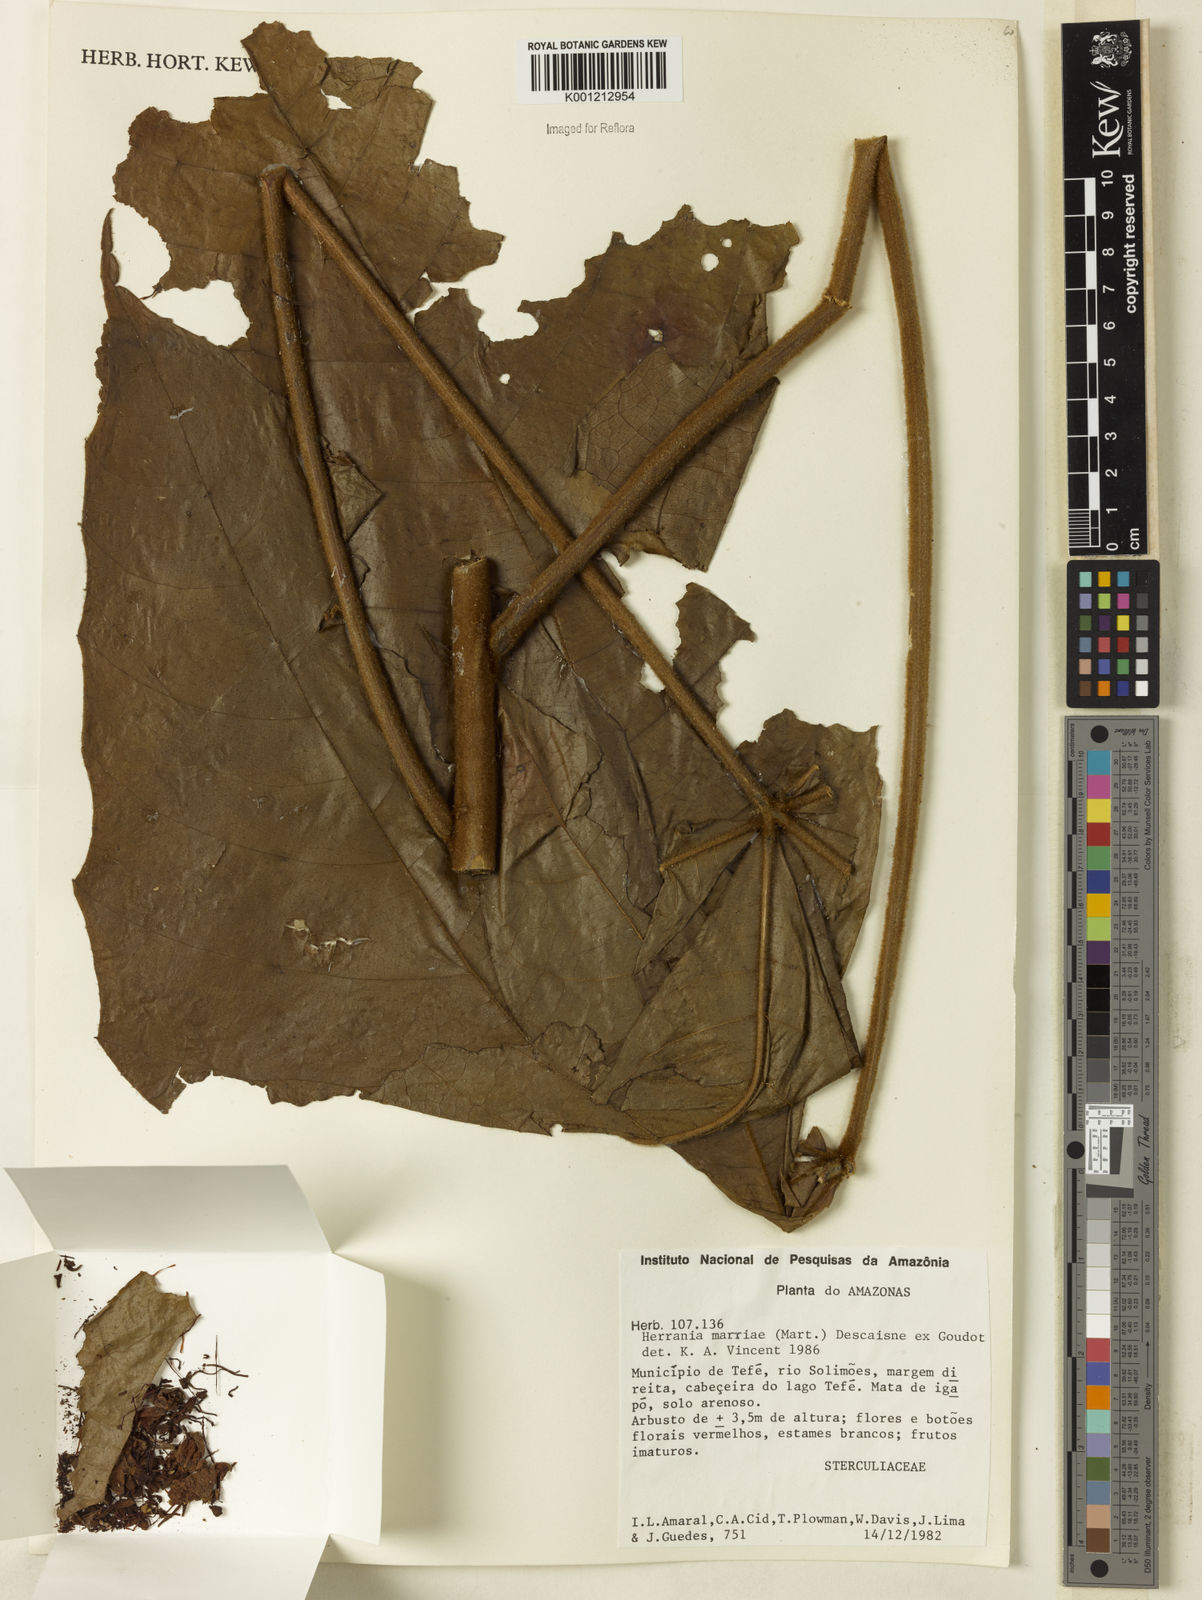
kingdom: Plantae
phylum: Tracheophyta
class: Magnoliopsida
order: Malvales
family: Malvaceae
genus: Herrania
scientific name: Herrania nitida
